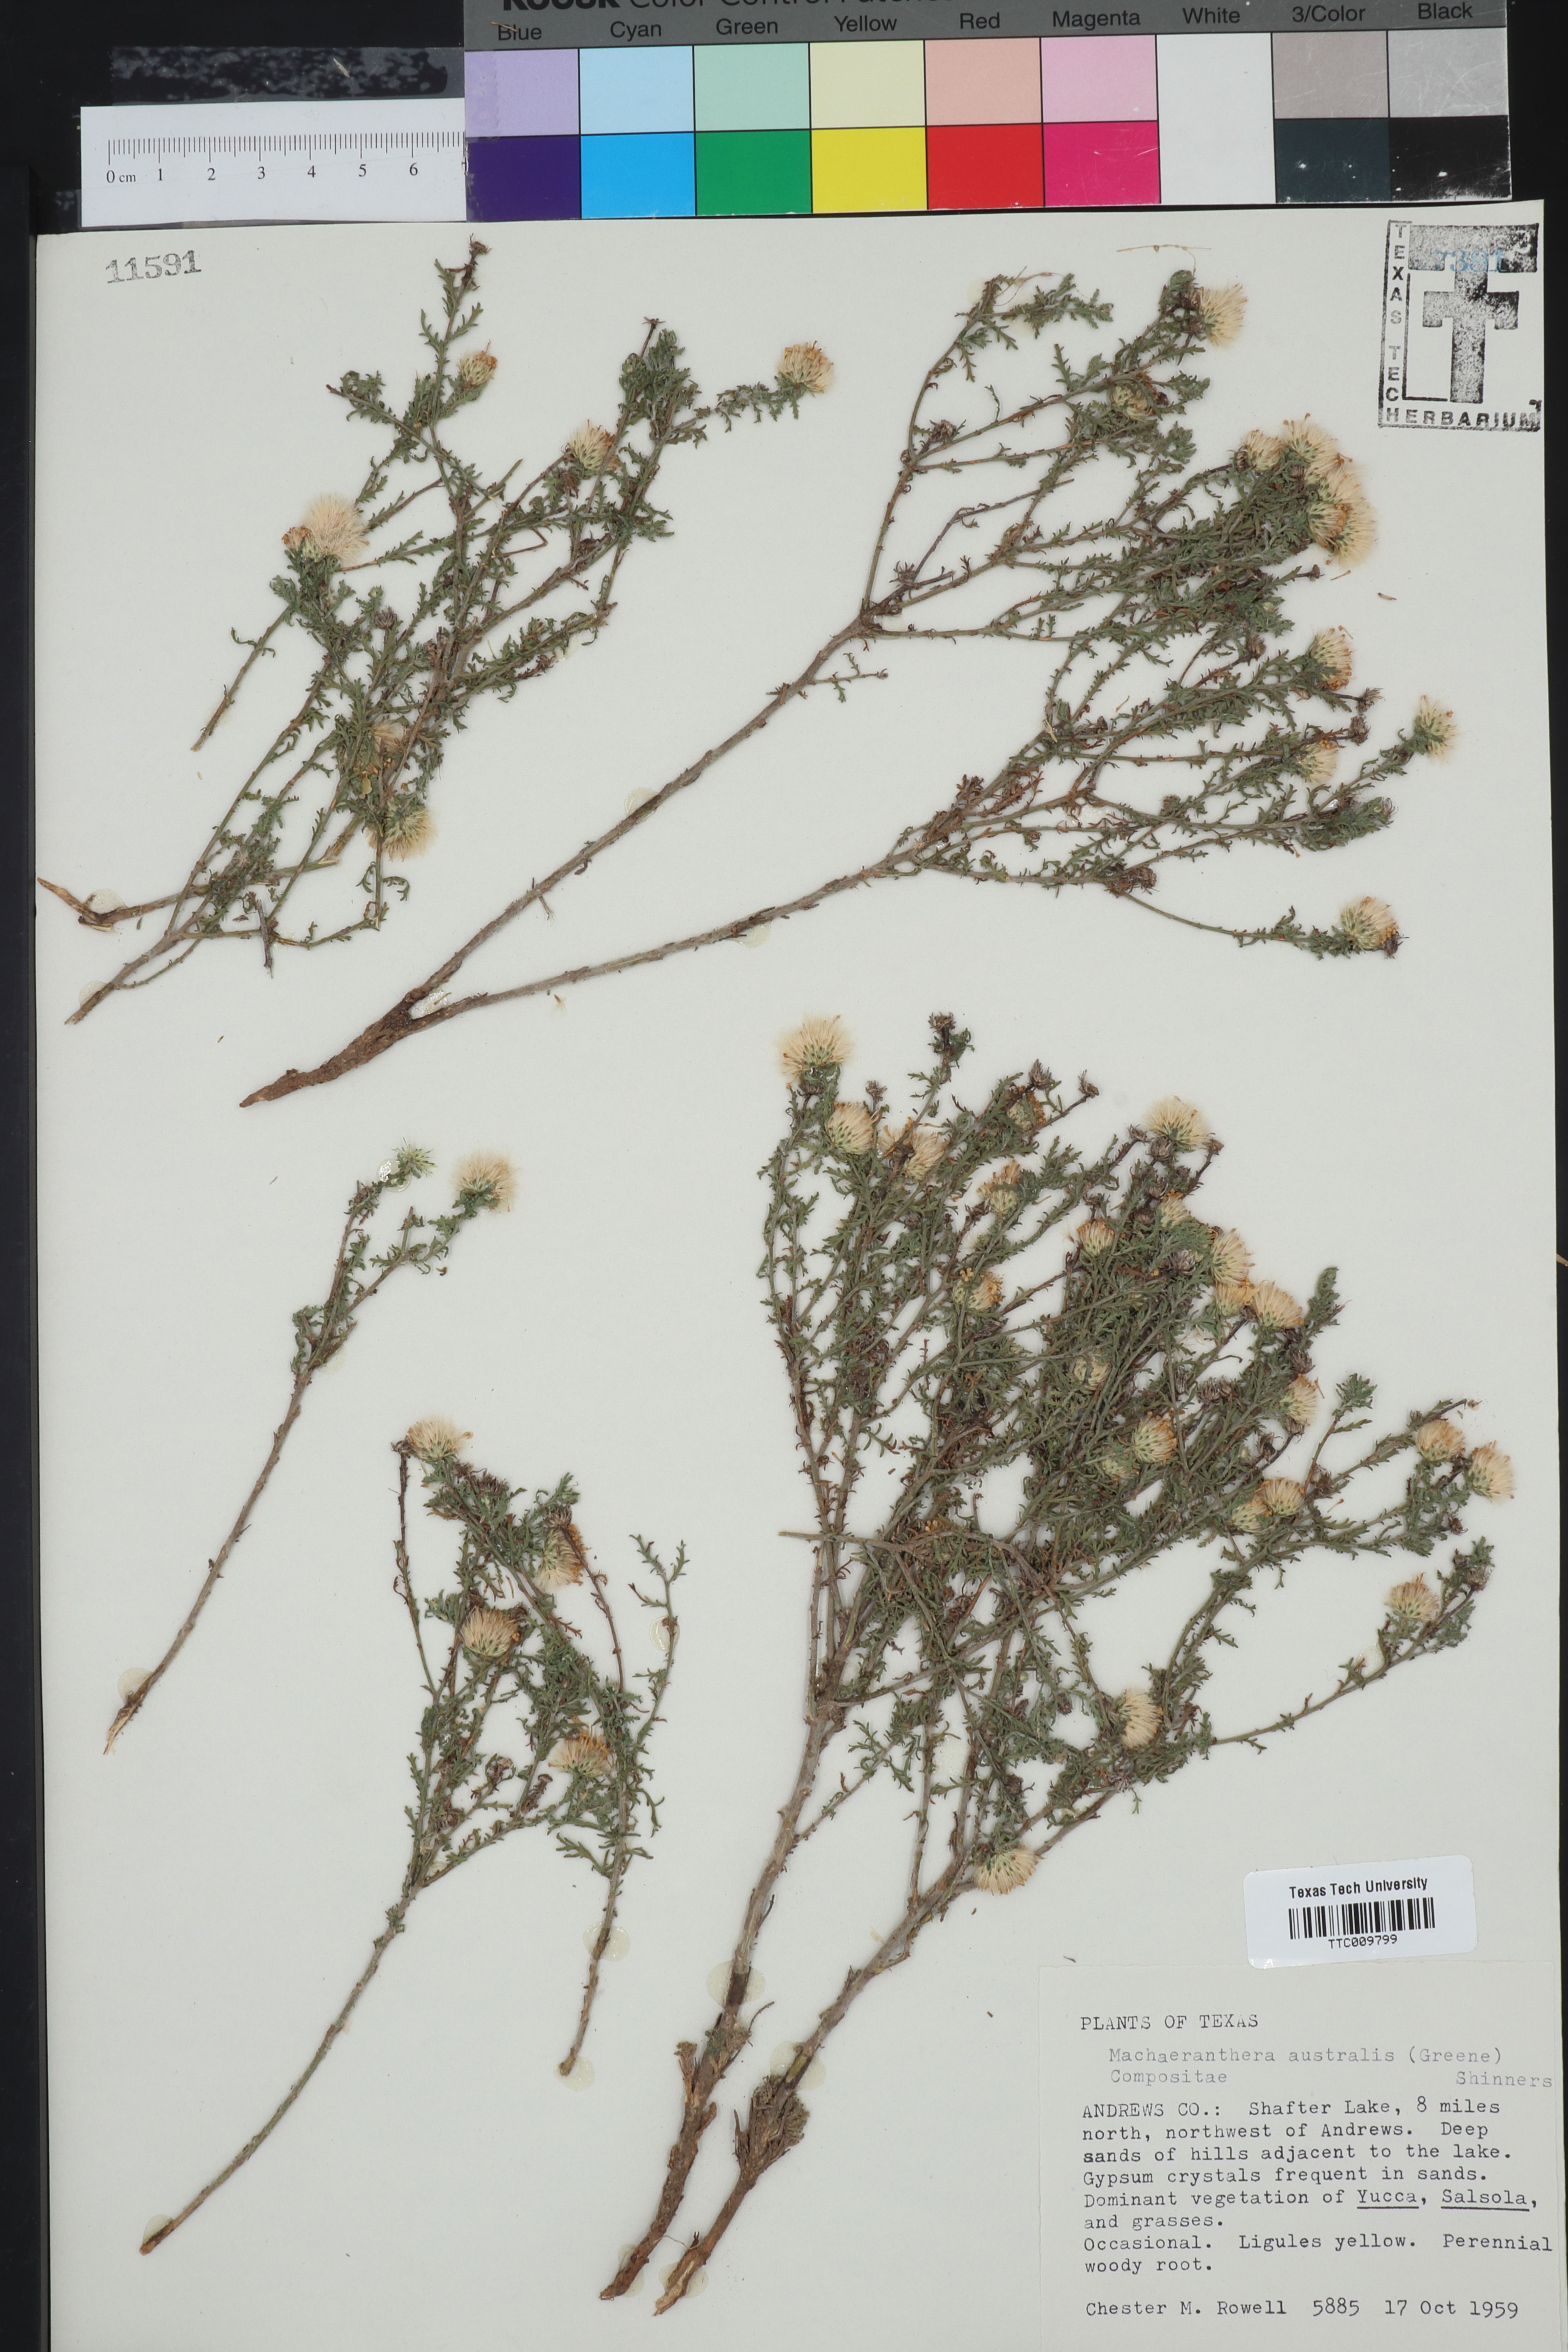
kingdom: Plantae
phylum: Tracheophyta
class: Magnoliopsida
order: Asterales
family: Asteraceae
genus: Xanthisma
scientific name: Xanthisma spinulosum
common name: Spiny goldenweed
